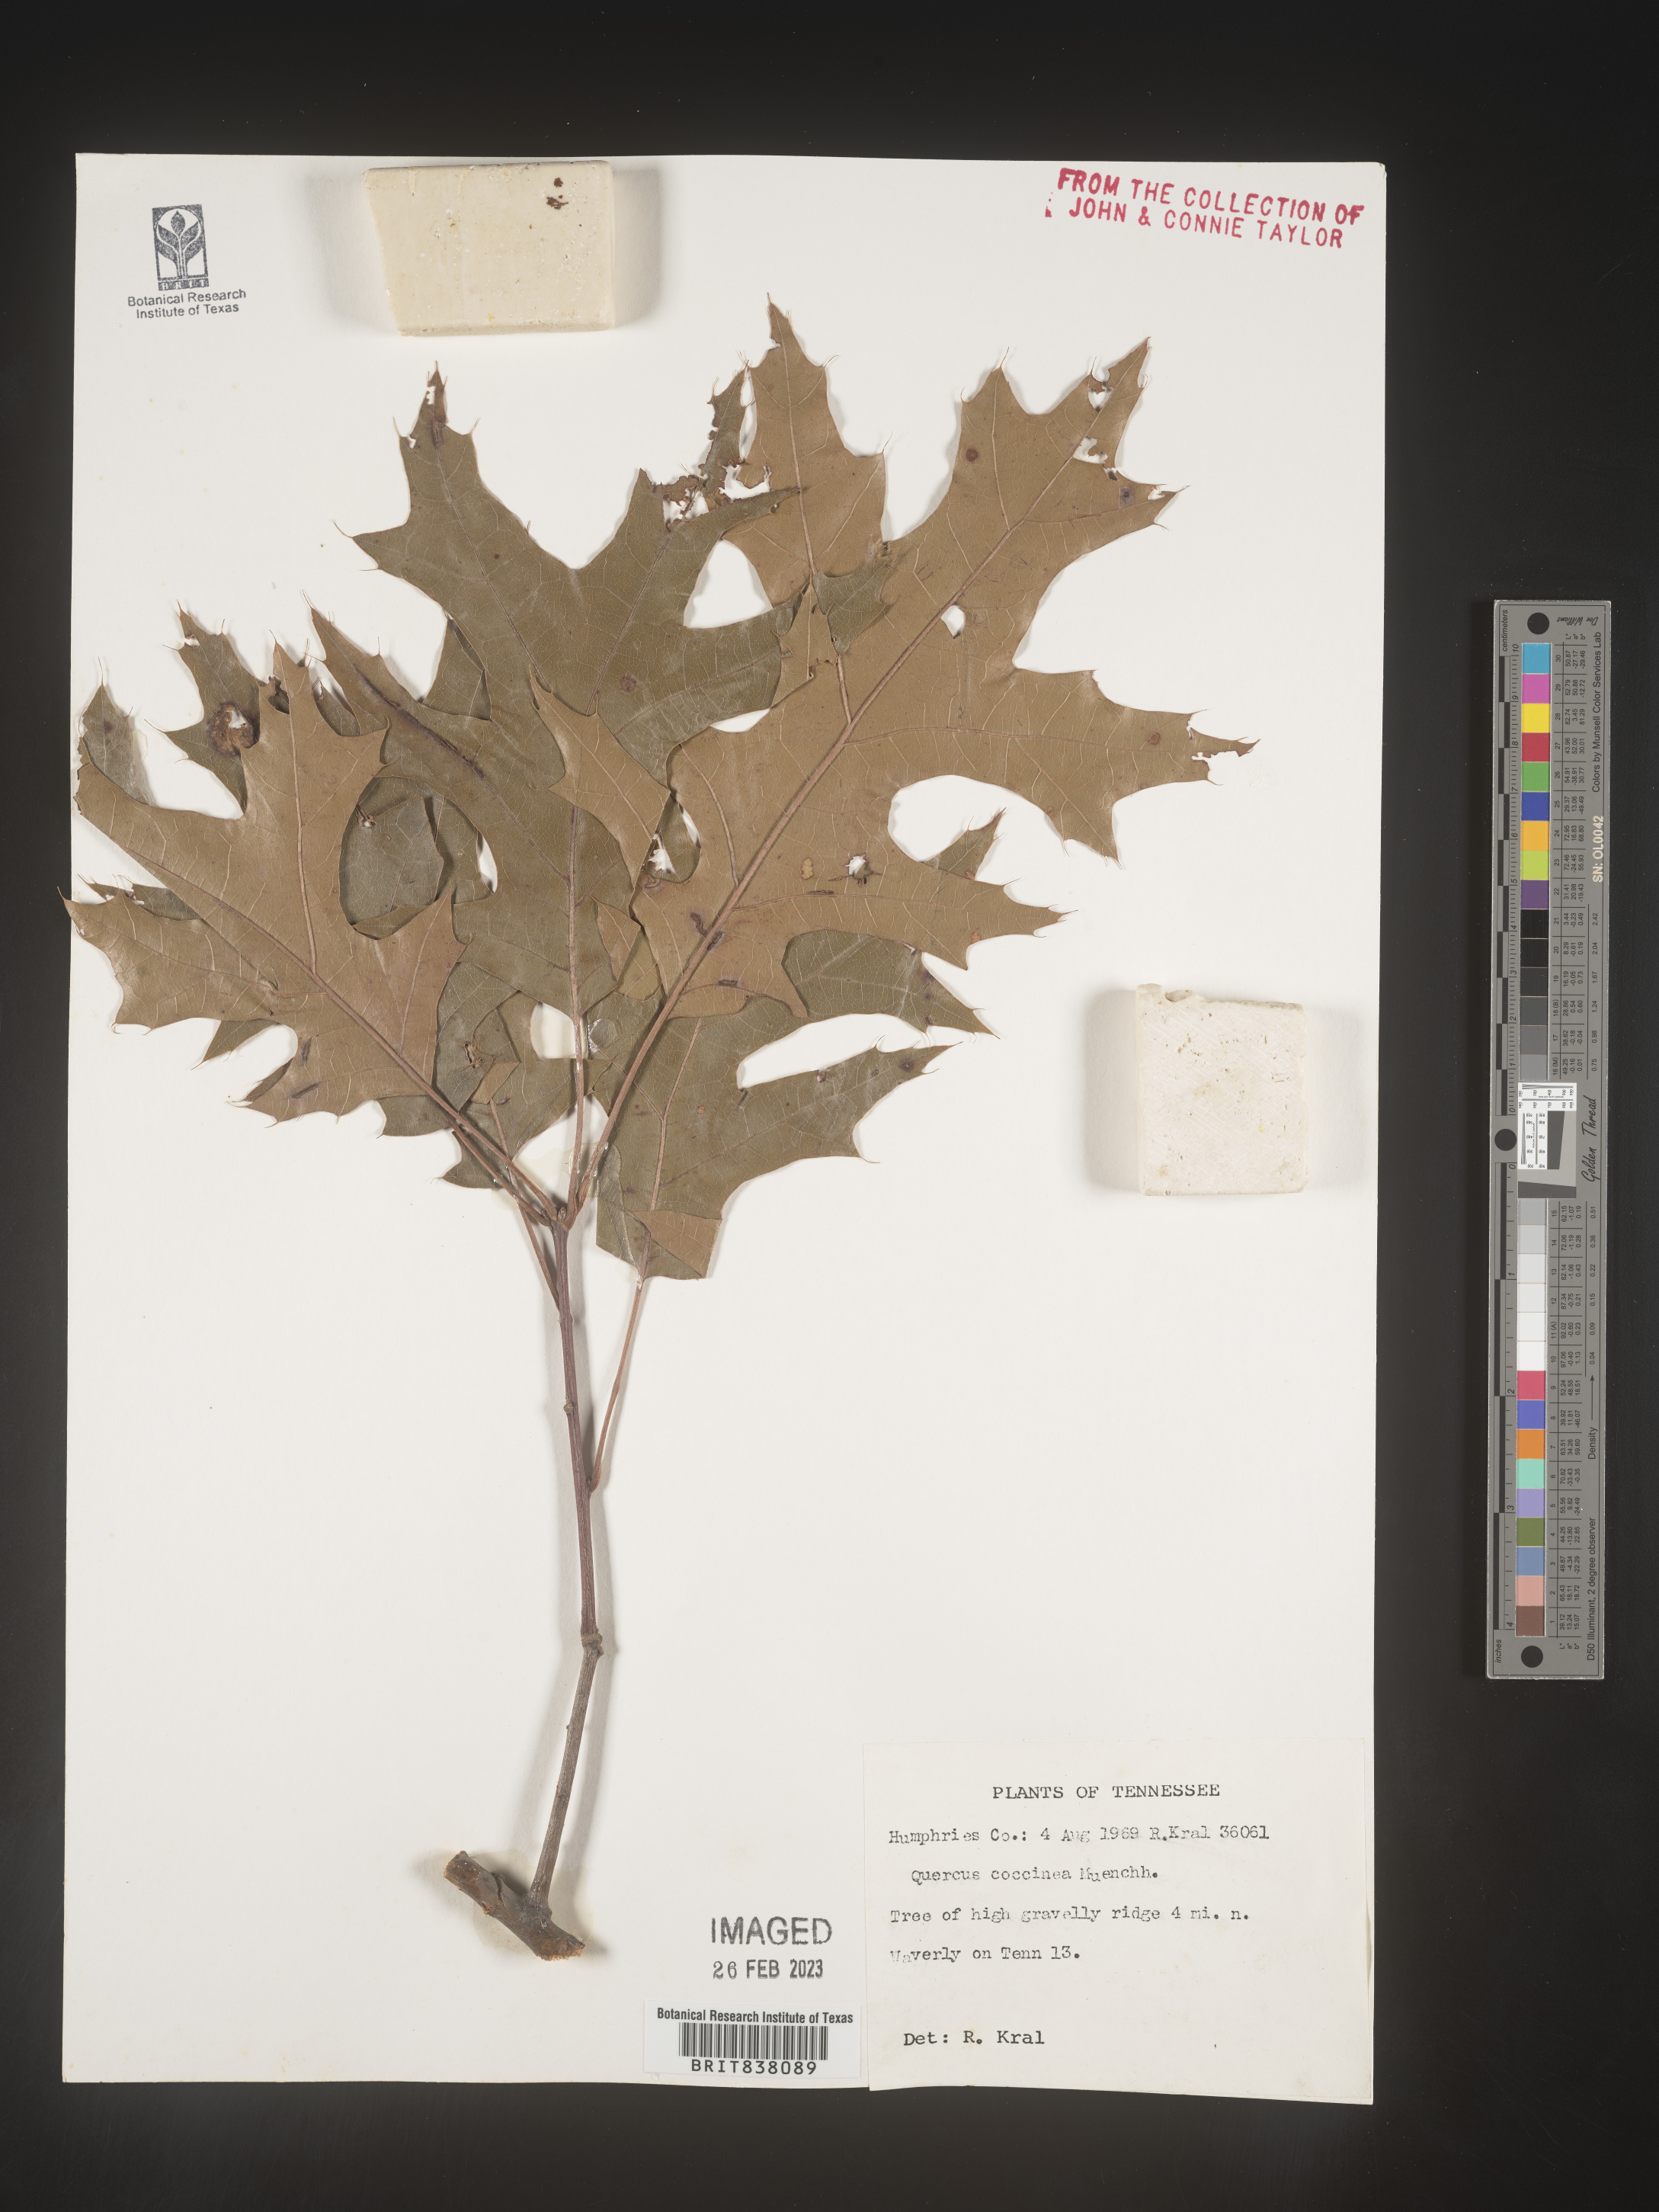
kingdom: Plantae
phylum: Tracheophyta
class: Magnoliopsida
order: Fagales
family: Fagaceae
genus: Quercus
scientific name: Quercus coccinea
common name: Scarlet oak
